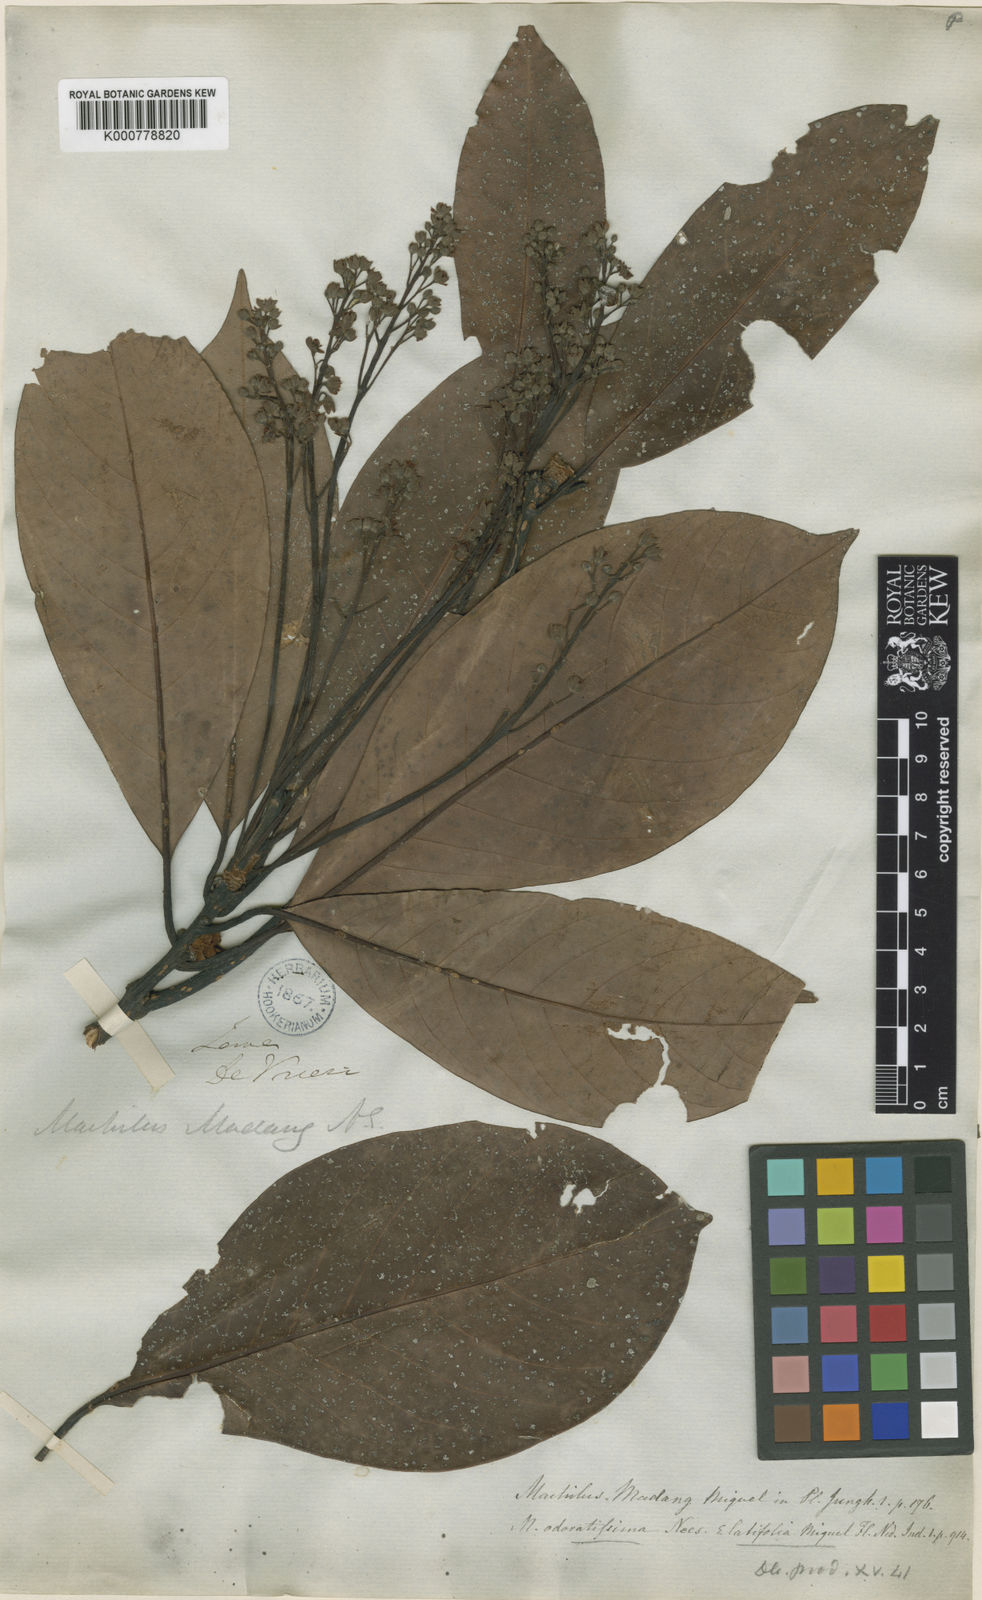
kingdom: Plantae
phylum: Tracheophyta
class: Magnoliopsida
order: Laurales
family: Lauraceae
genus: Persea
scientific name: Persea
